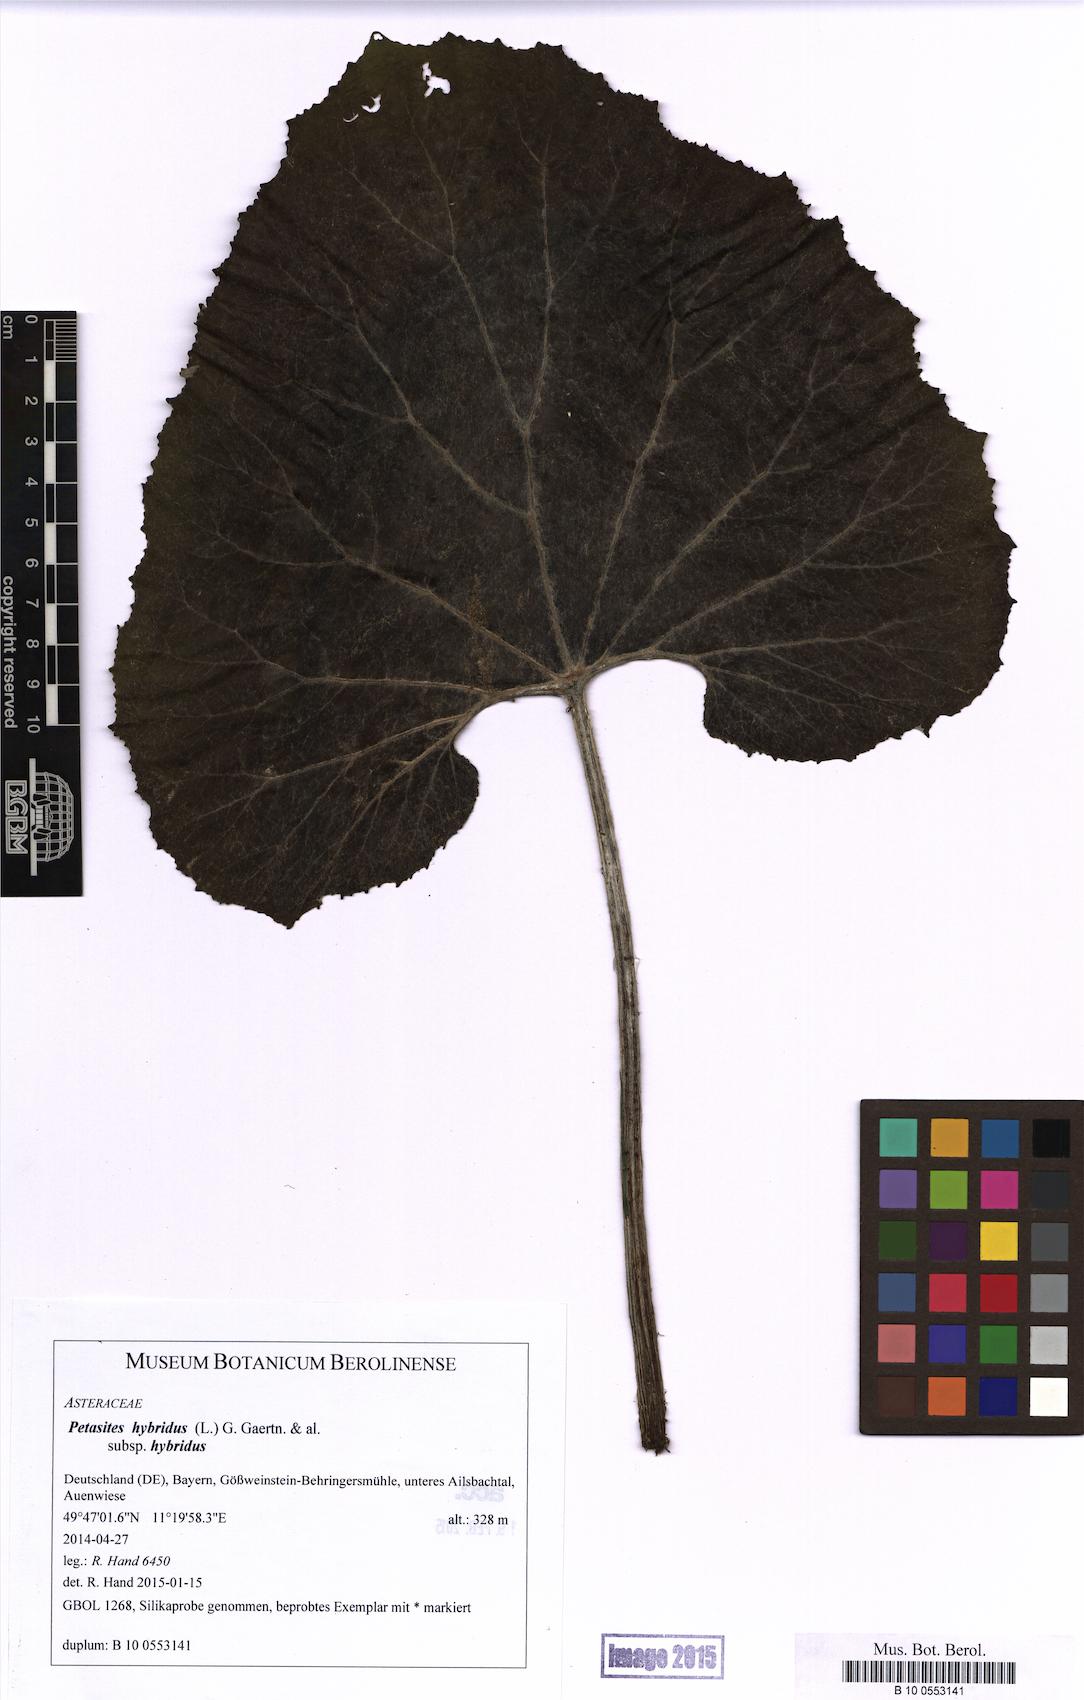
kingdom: Plantae
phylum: Tracheophyta
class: Magnoliopsida
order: Asterales
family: Asteraceae
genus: Petasites
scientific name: Petasites hybridus
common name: Butterbur
